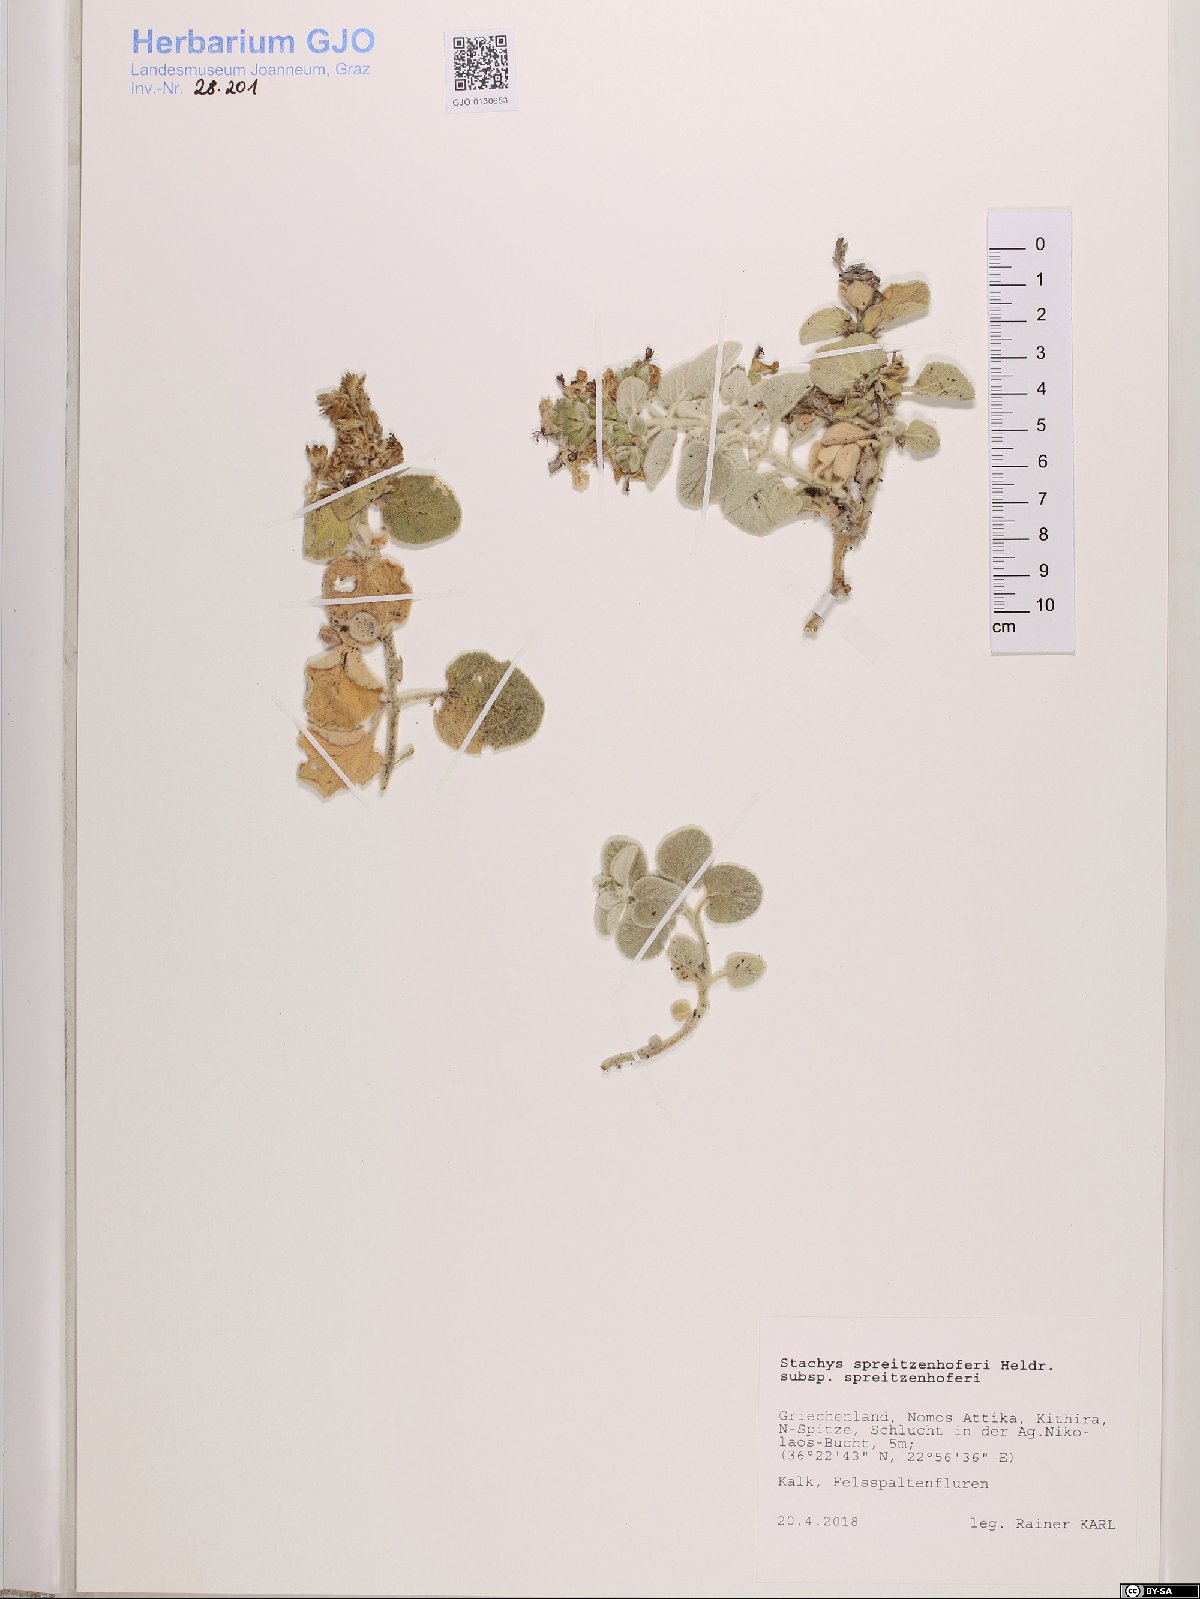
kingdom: Plantae
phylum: Tracheophyta
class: Magnoliopsida
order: Lamiales
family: Lamiaceae
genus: Stachys
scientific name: Stachys spreitzenhoferi
